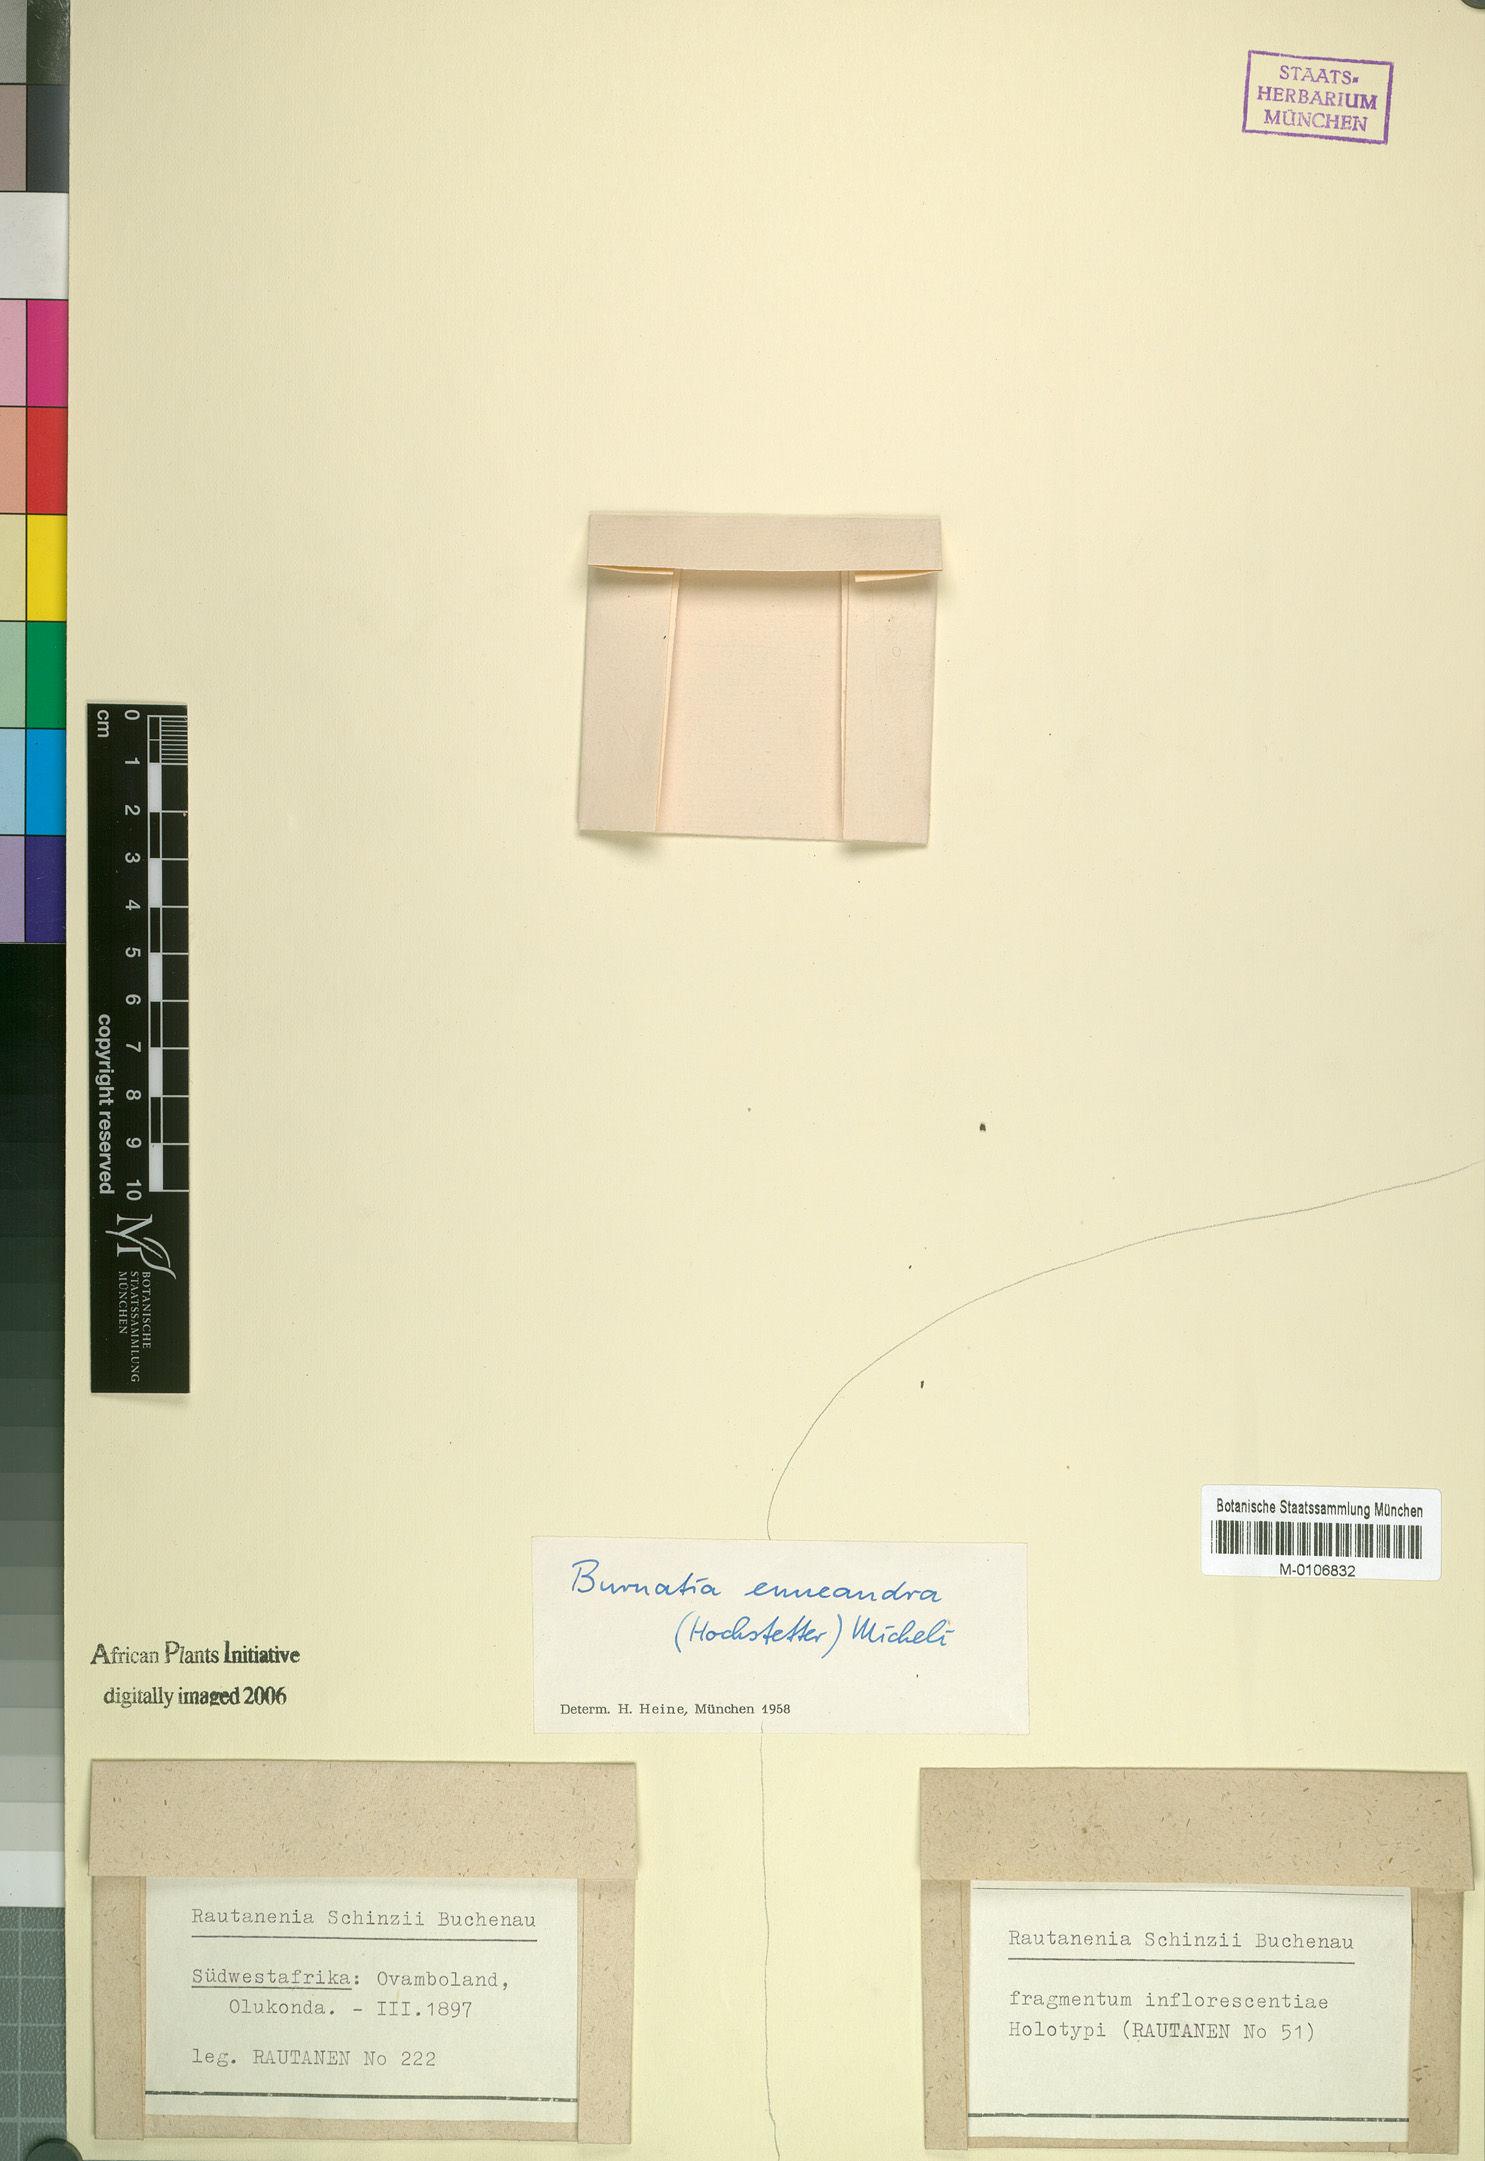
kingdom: Plantae
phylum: Tracheophyta
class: Liliopsida
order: Alismatales
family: Alismataceae
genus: Burnatia
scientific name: Burnatia enneandra
